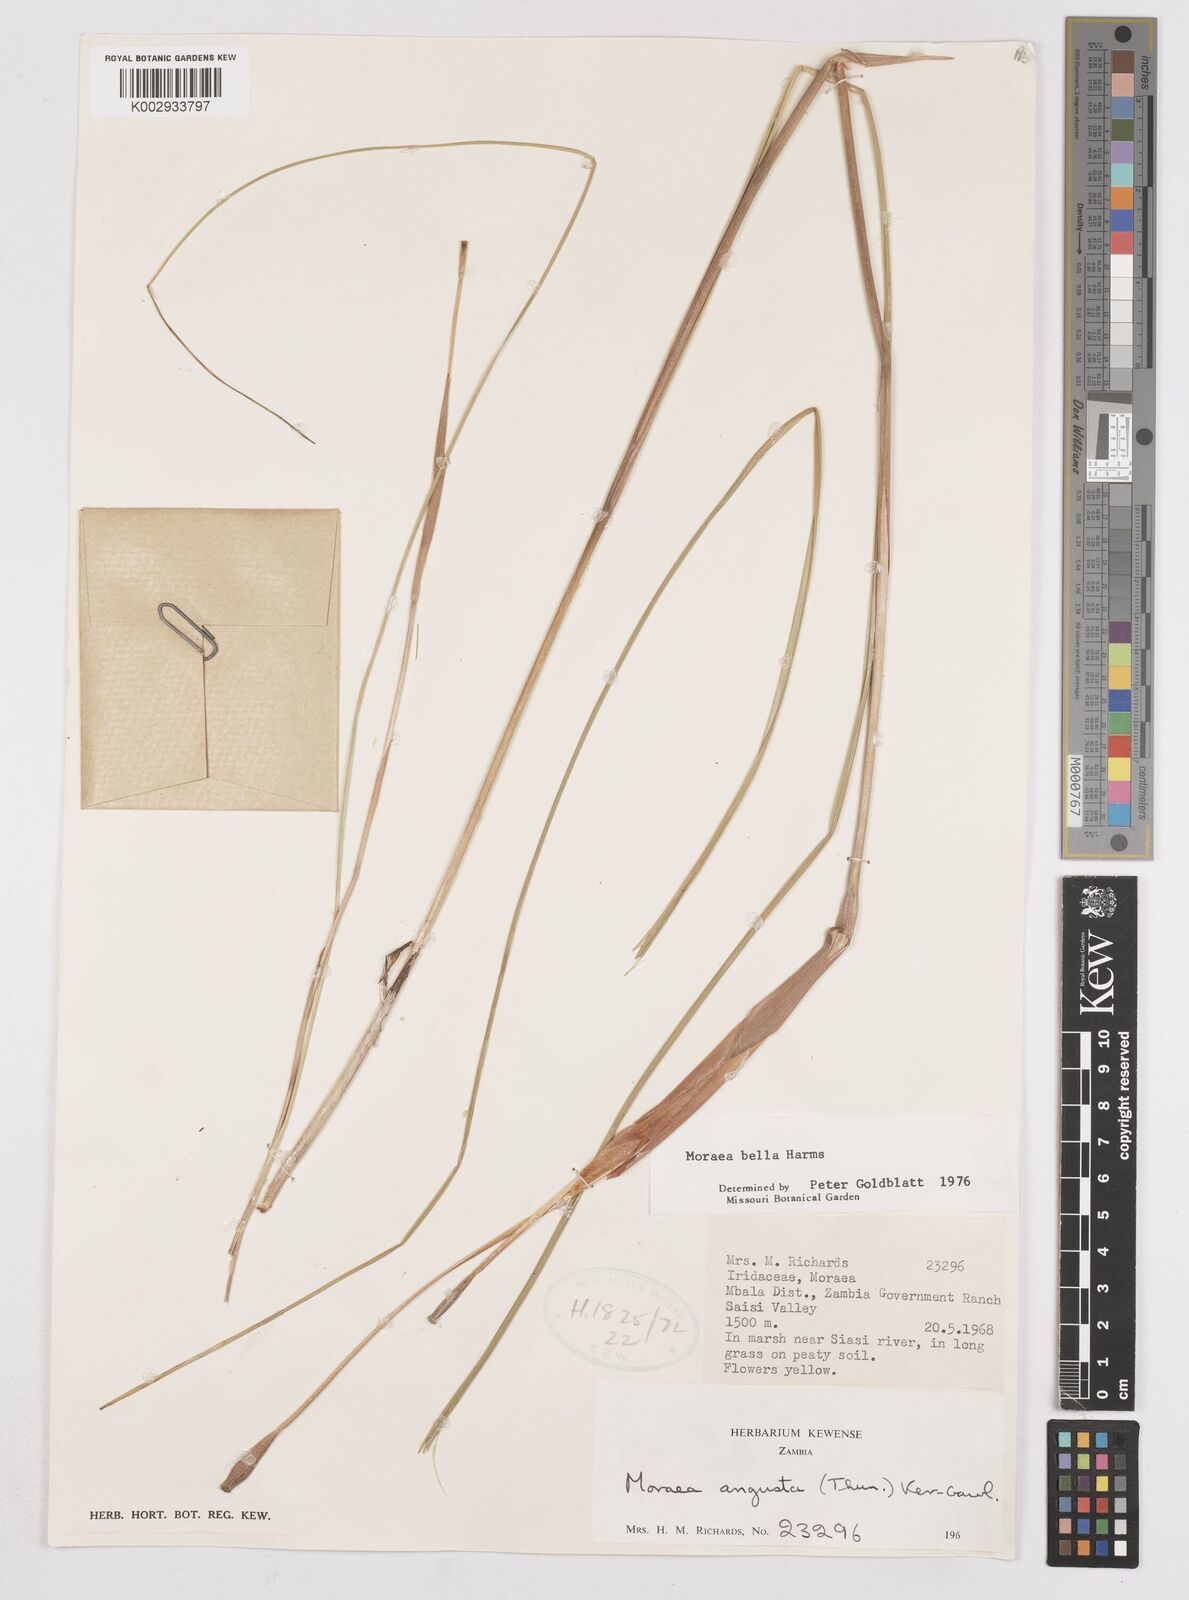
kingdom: Plantae
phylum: Tracheophyta
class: Liliopsida
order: Asparagales
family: Iridaceae
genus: Moraea
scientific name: Moraea bella
